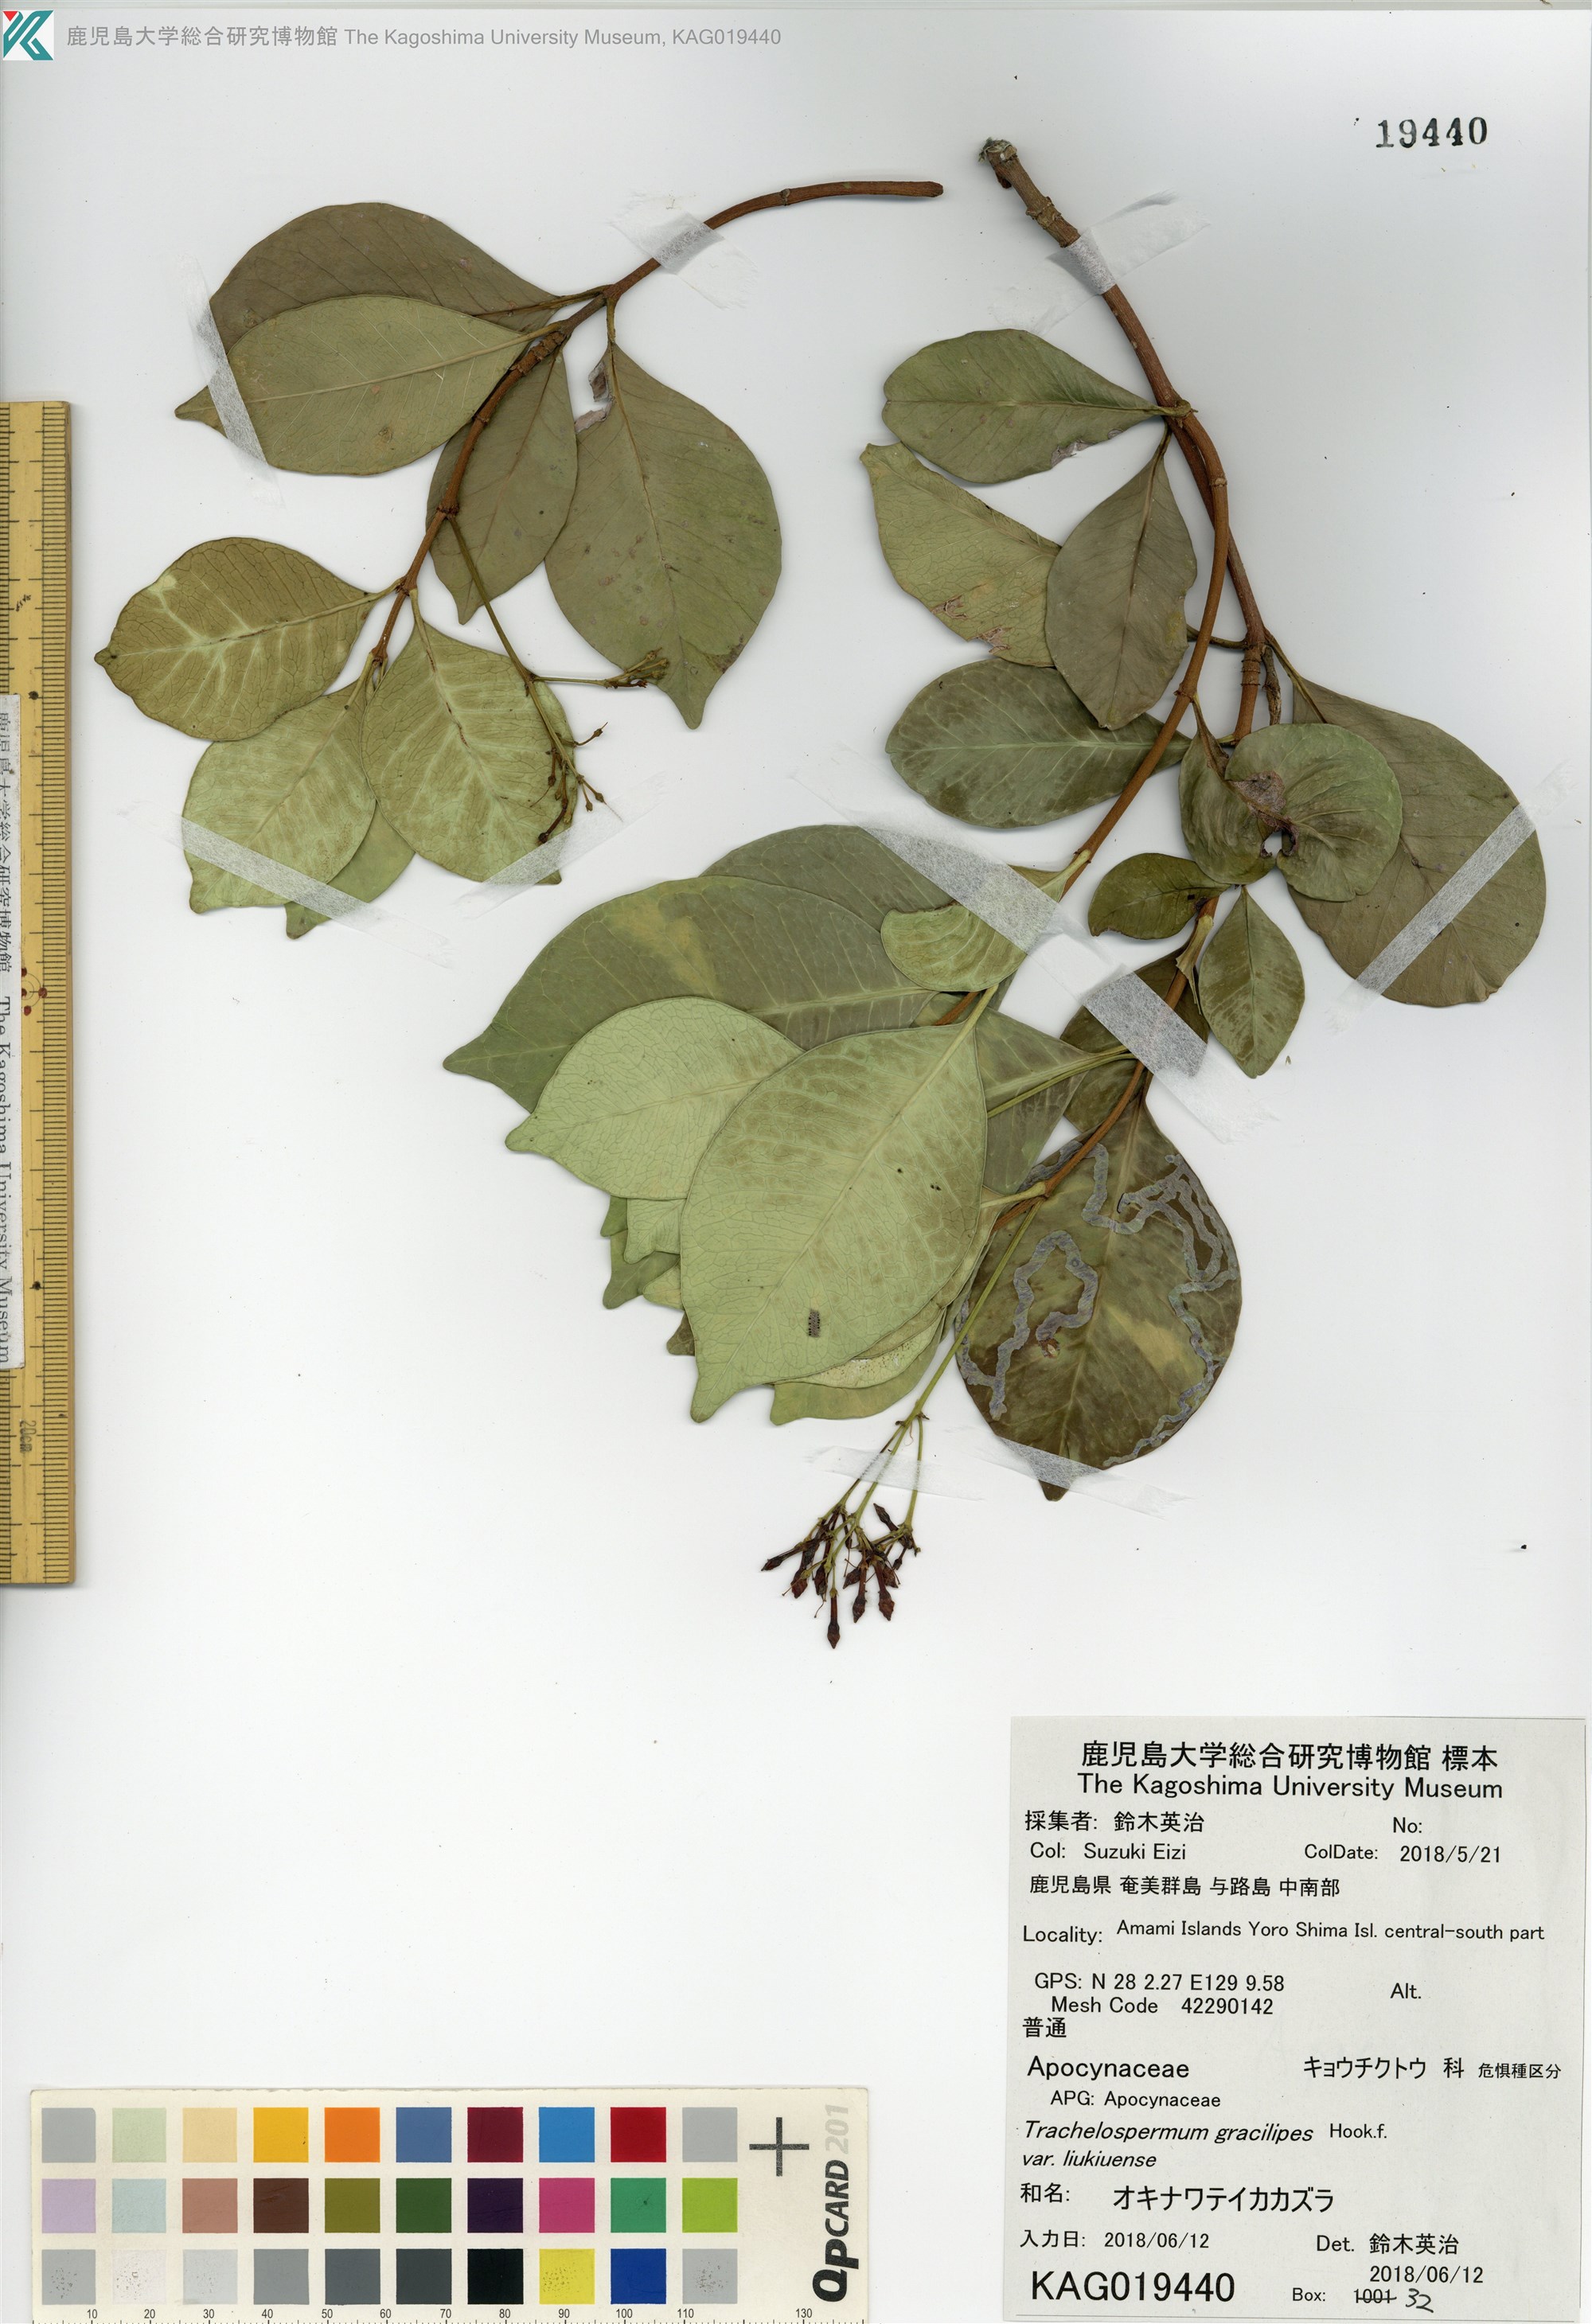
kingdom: Plantae
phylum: Tracheophyta
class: Magnoliopsida
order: Gentianales
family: Apocynaceae
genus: Trachelospermum
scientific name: Trachelospermum gracilipes
